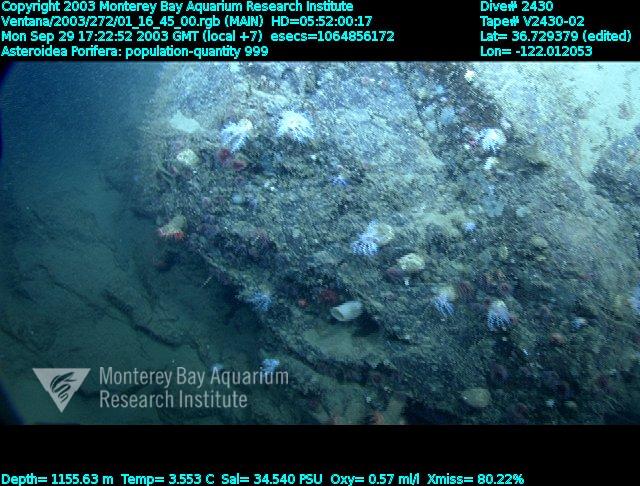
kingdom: Animalia
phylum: Porifera
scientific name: Porifera
